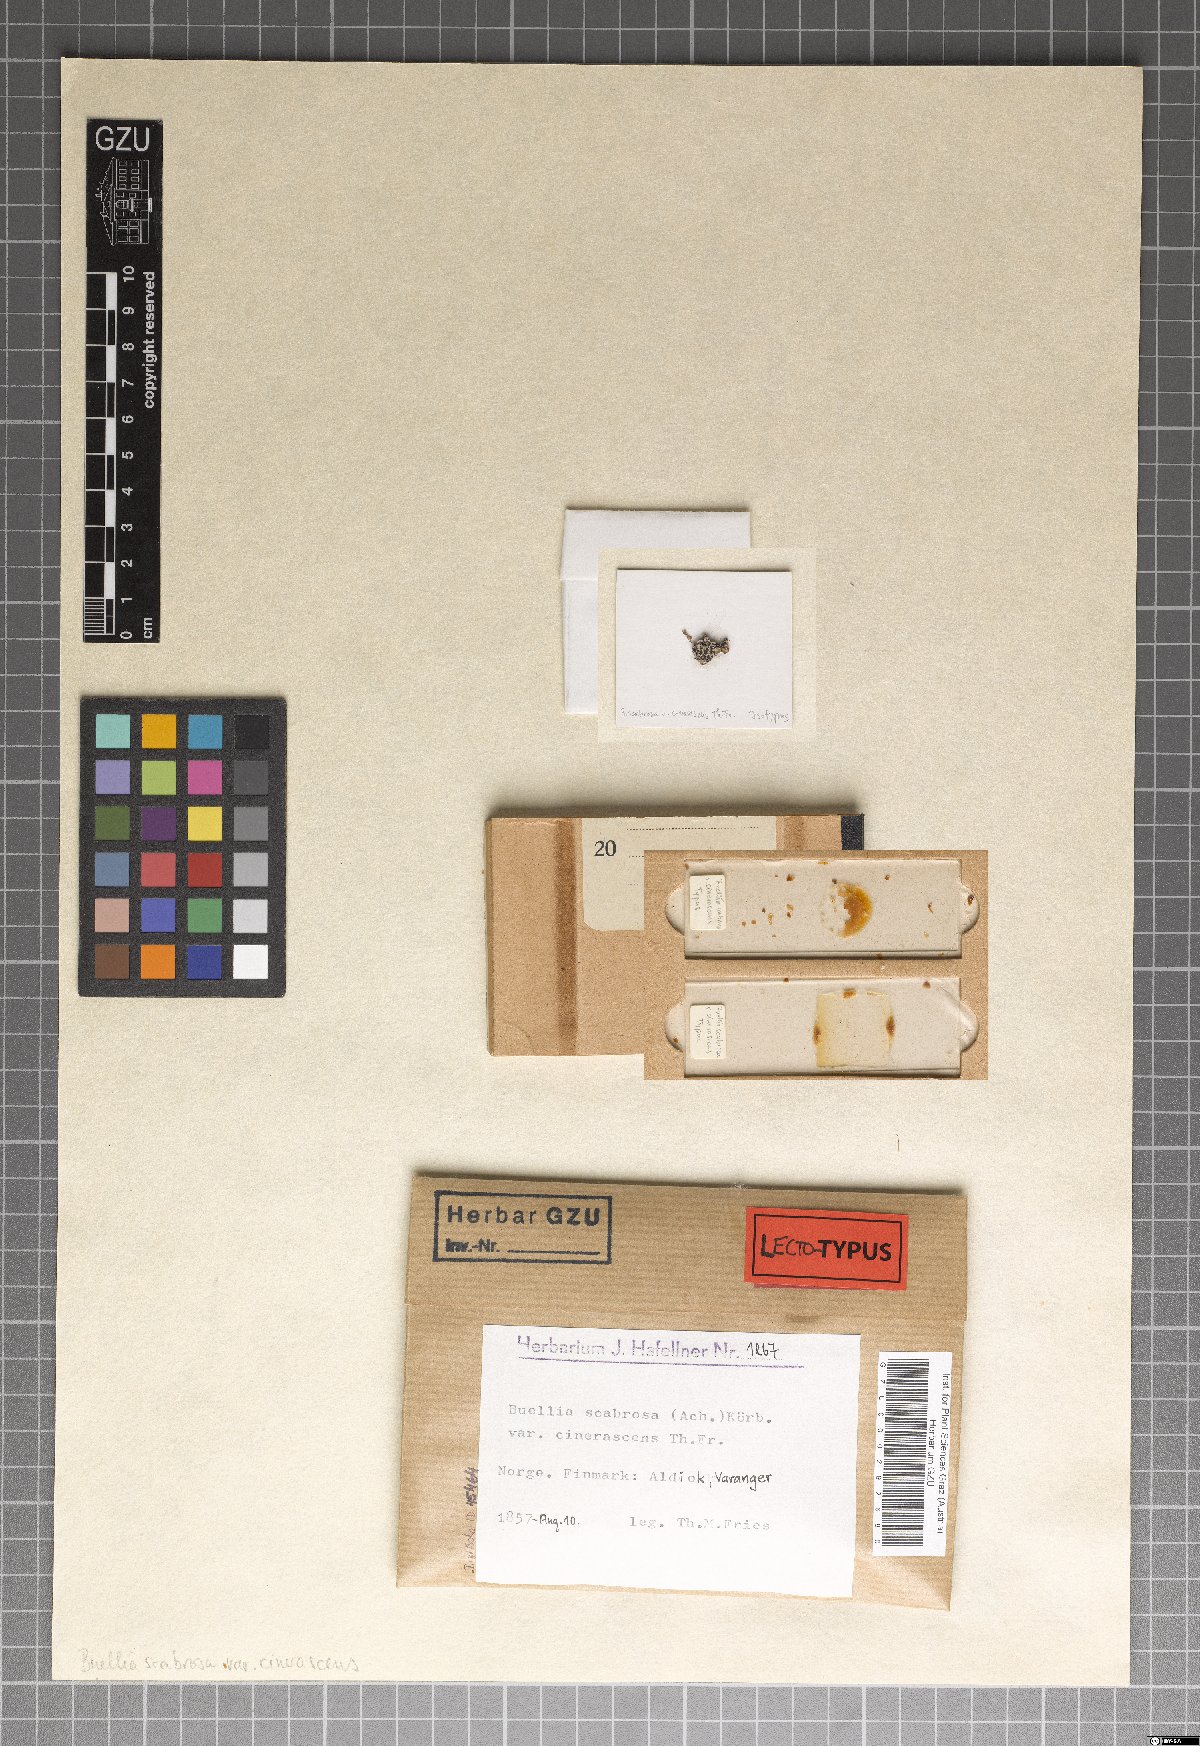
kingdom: Fungi
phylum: Ascomycota
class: Lecanoromycetes
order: Rhizocarpales
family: Rhizocarpaceae
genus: Epilichen
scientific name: Epilichen glauconigellus
